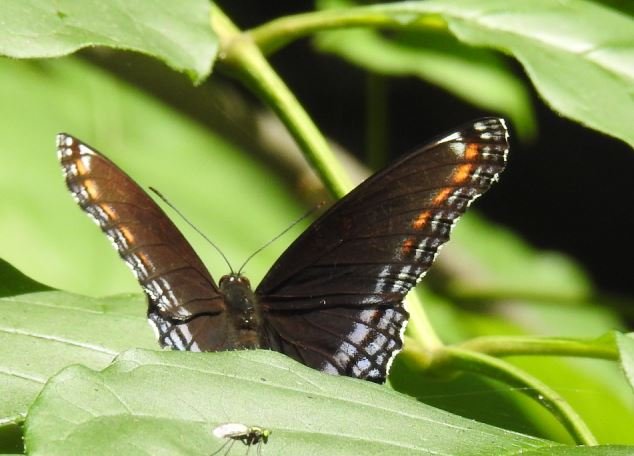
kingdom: Animalia
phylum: Arthropoda
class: Insecta
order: Lepidoptera
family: Nymphalidae
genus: Limenitis
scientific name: Limenitis astyanax
